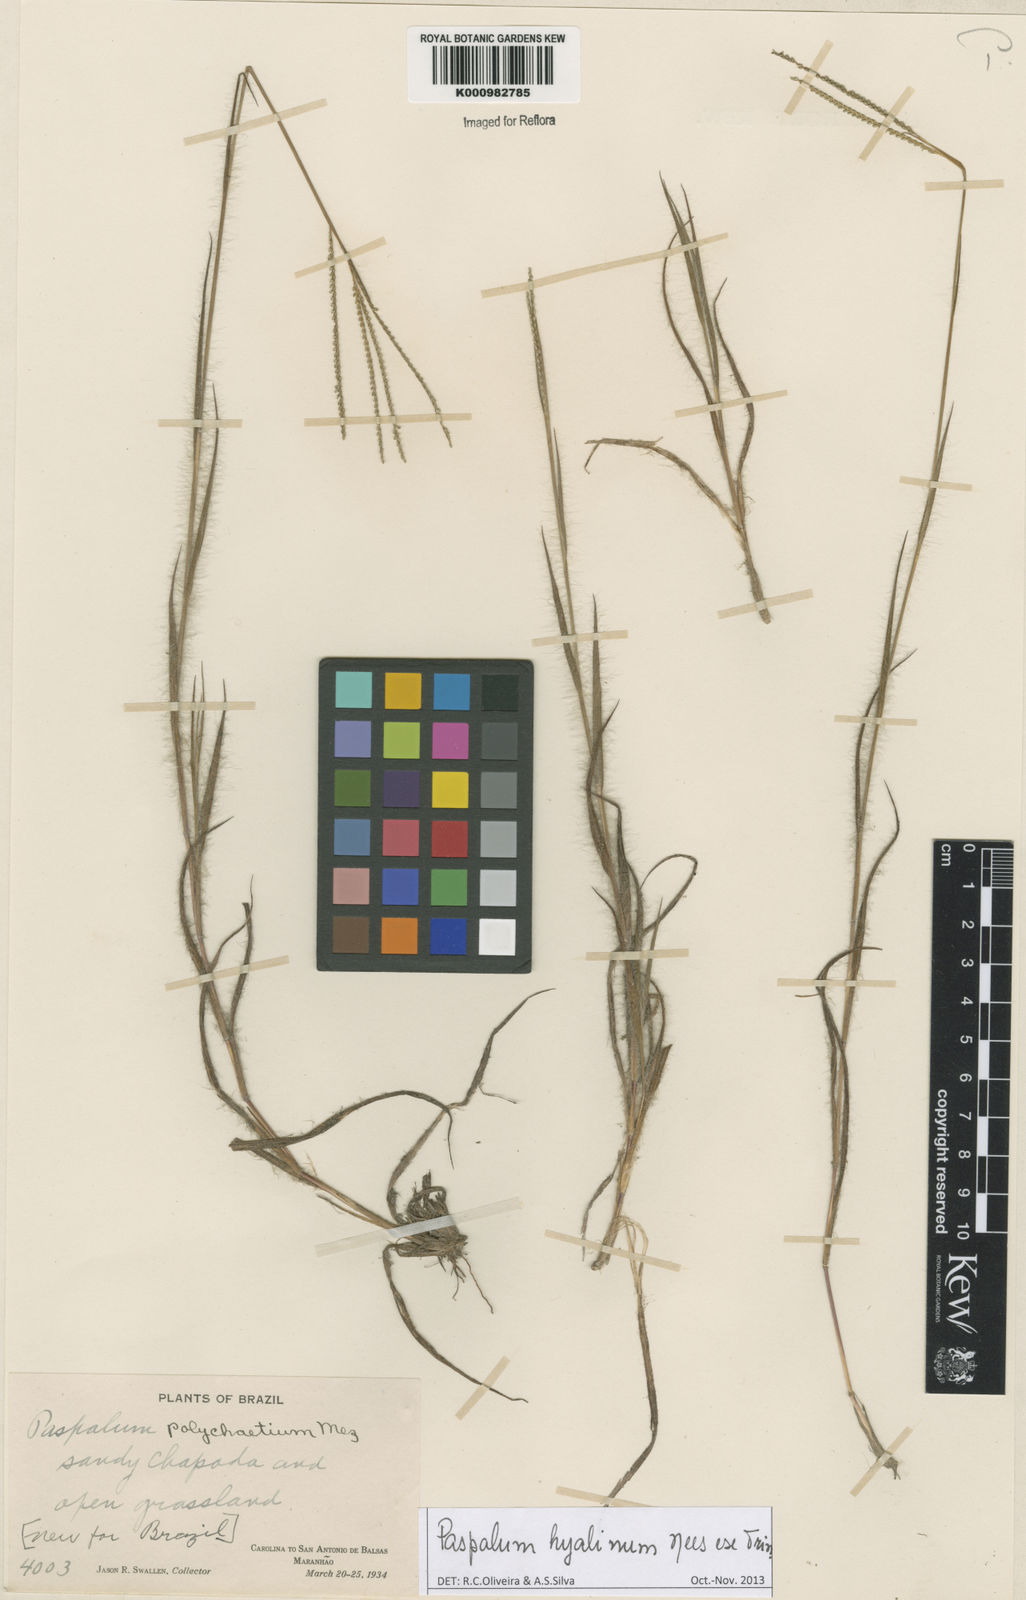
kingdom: Plantae
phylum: Tracheophyta
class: Liliopsida
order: Poales
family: Poaceae
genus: Paspalum
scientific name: Paspalum hyalinum
